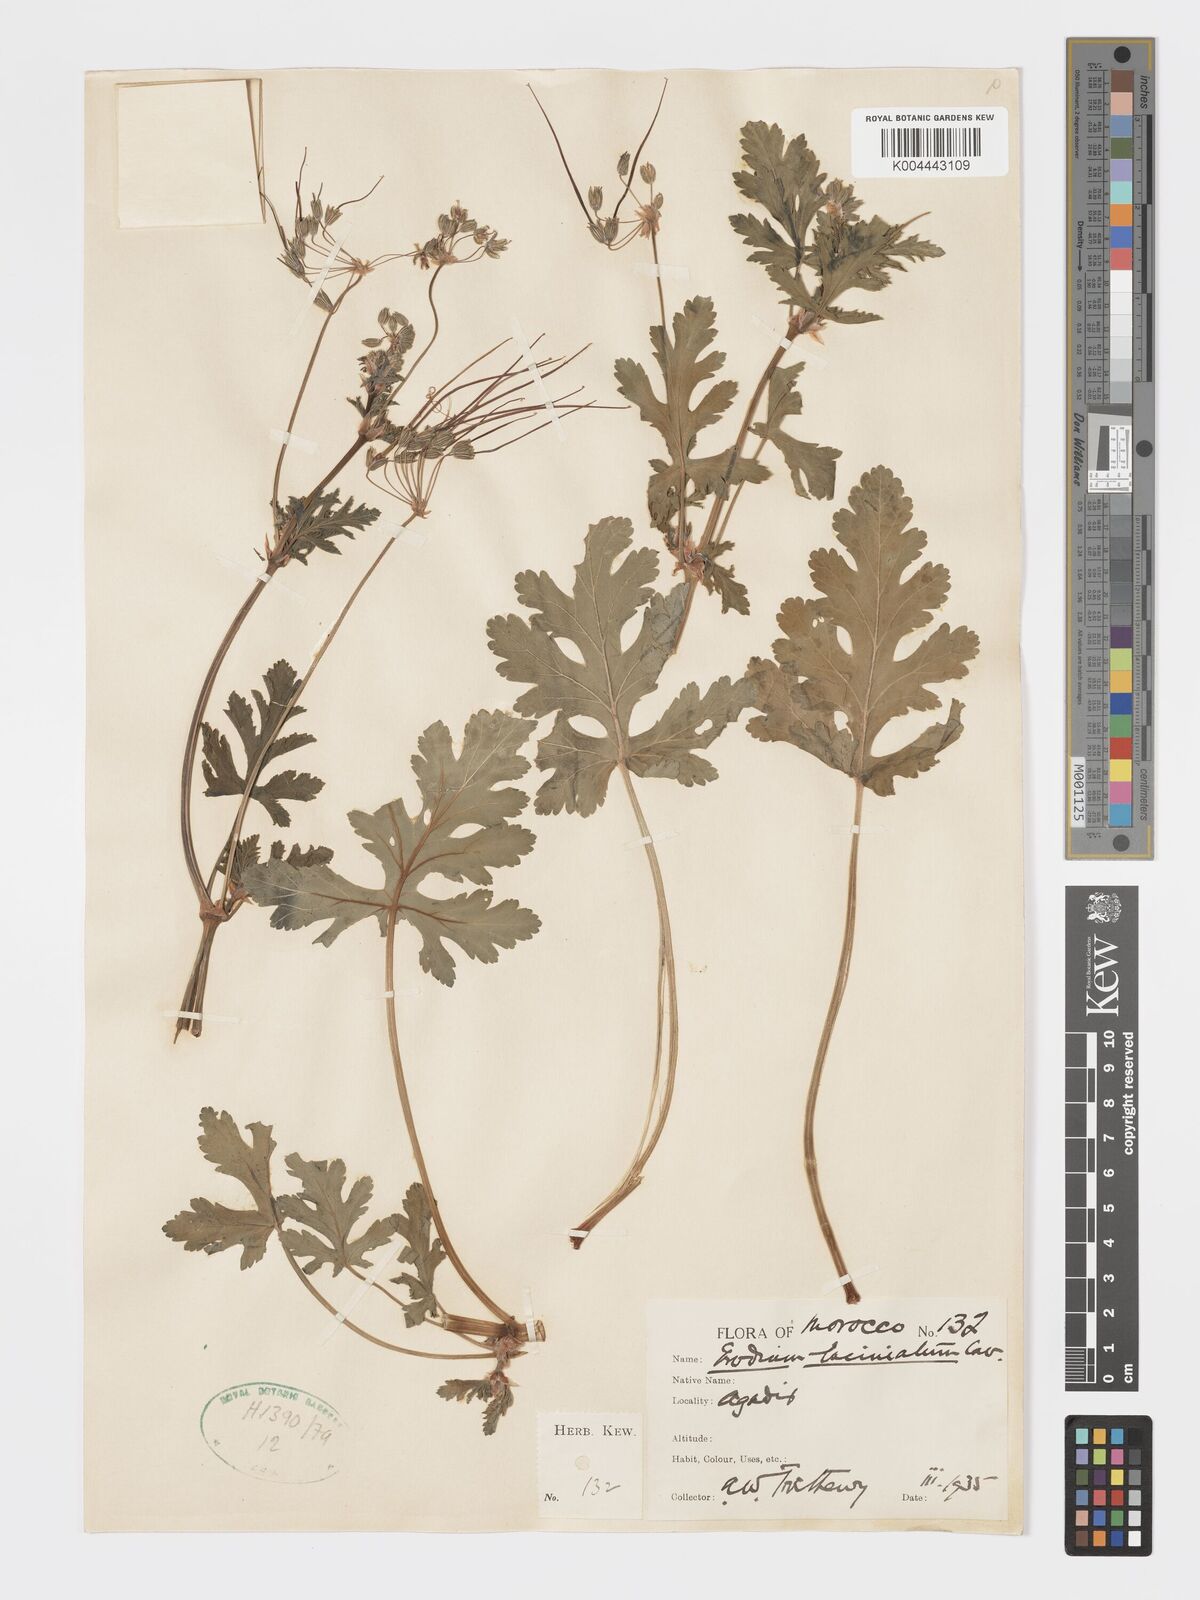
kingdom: Plantae
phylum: Tracheophyta
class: Magnoliopsida
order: Geraniales
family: Geraniaceae
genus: Erodium
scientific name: Erodium laciniatum
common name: Cutleaf stork's bill
